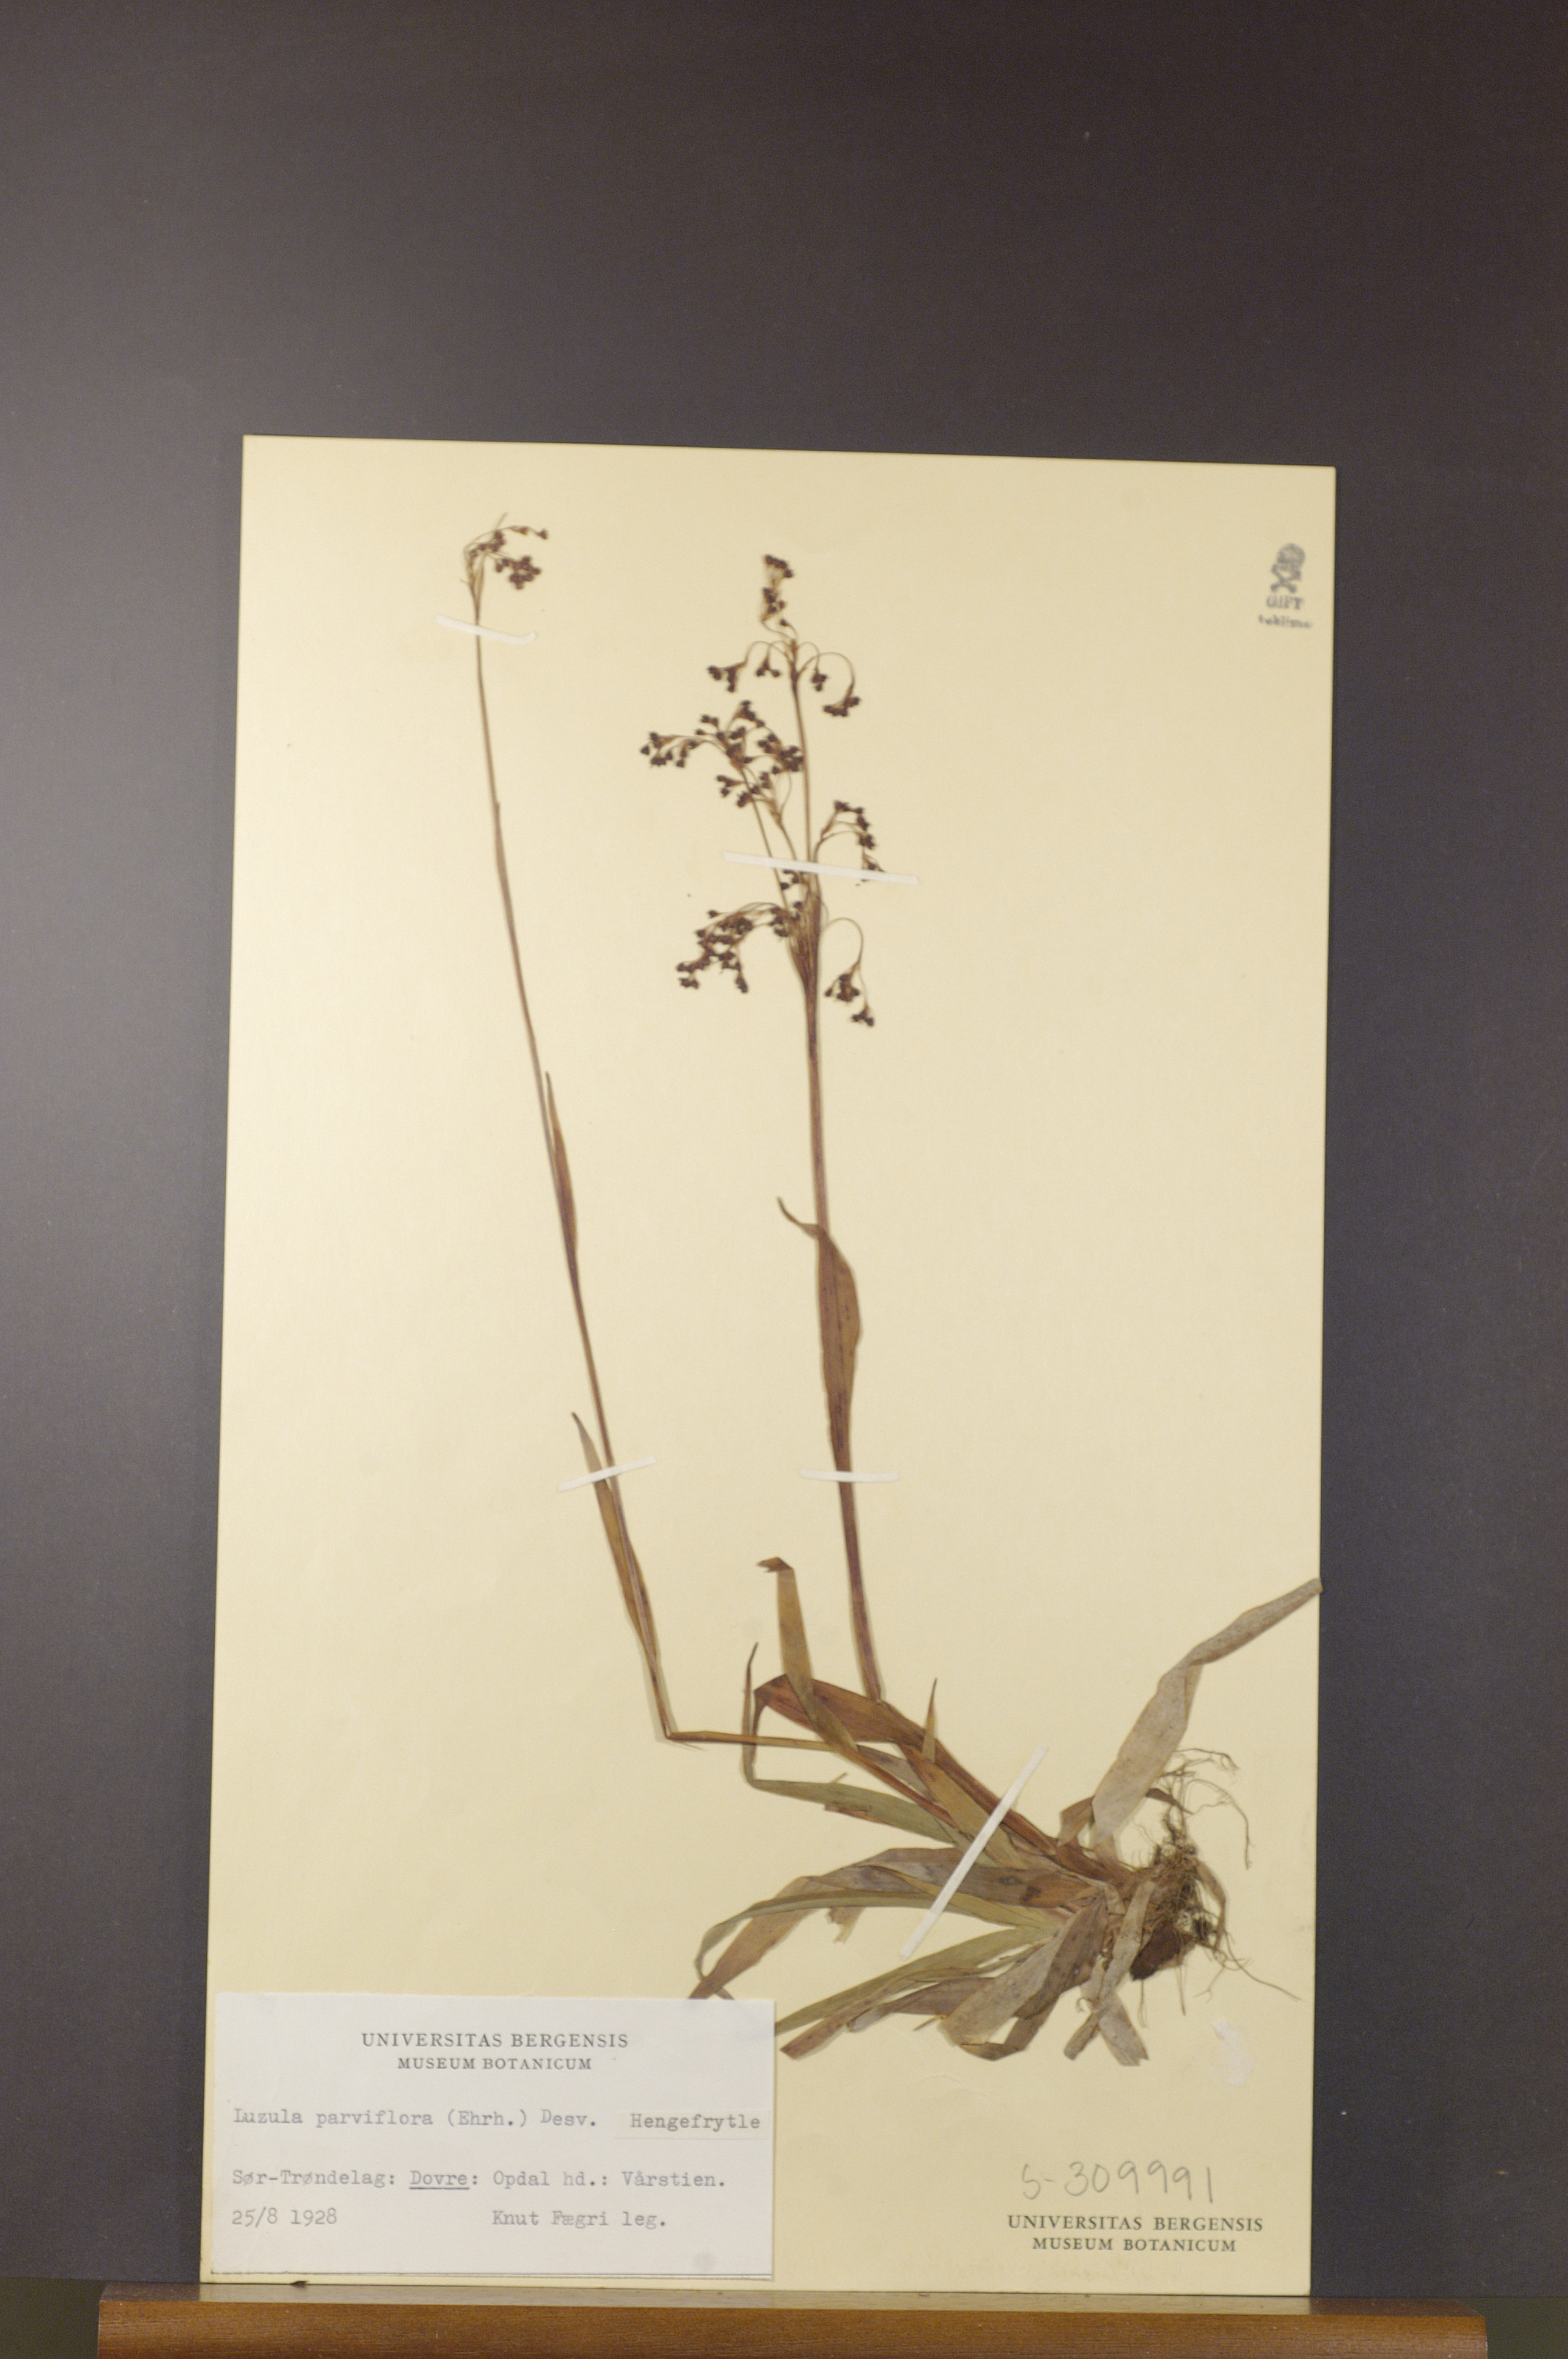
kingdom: Plantae
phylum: Tracheophyta
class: Liliopsida
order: Poales
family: Juncaceae
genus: Luzula
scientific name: Luzula parviflora
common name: Millet woodrush
